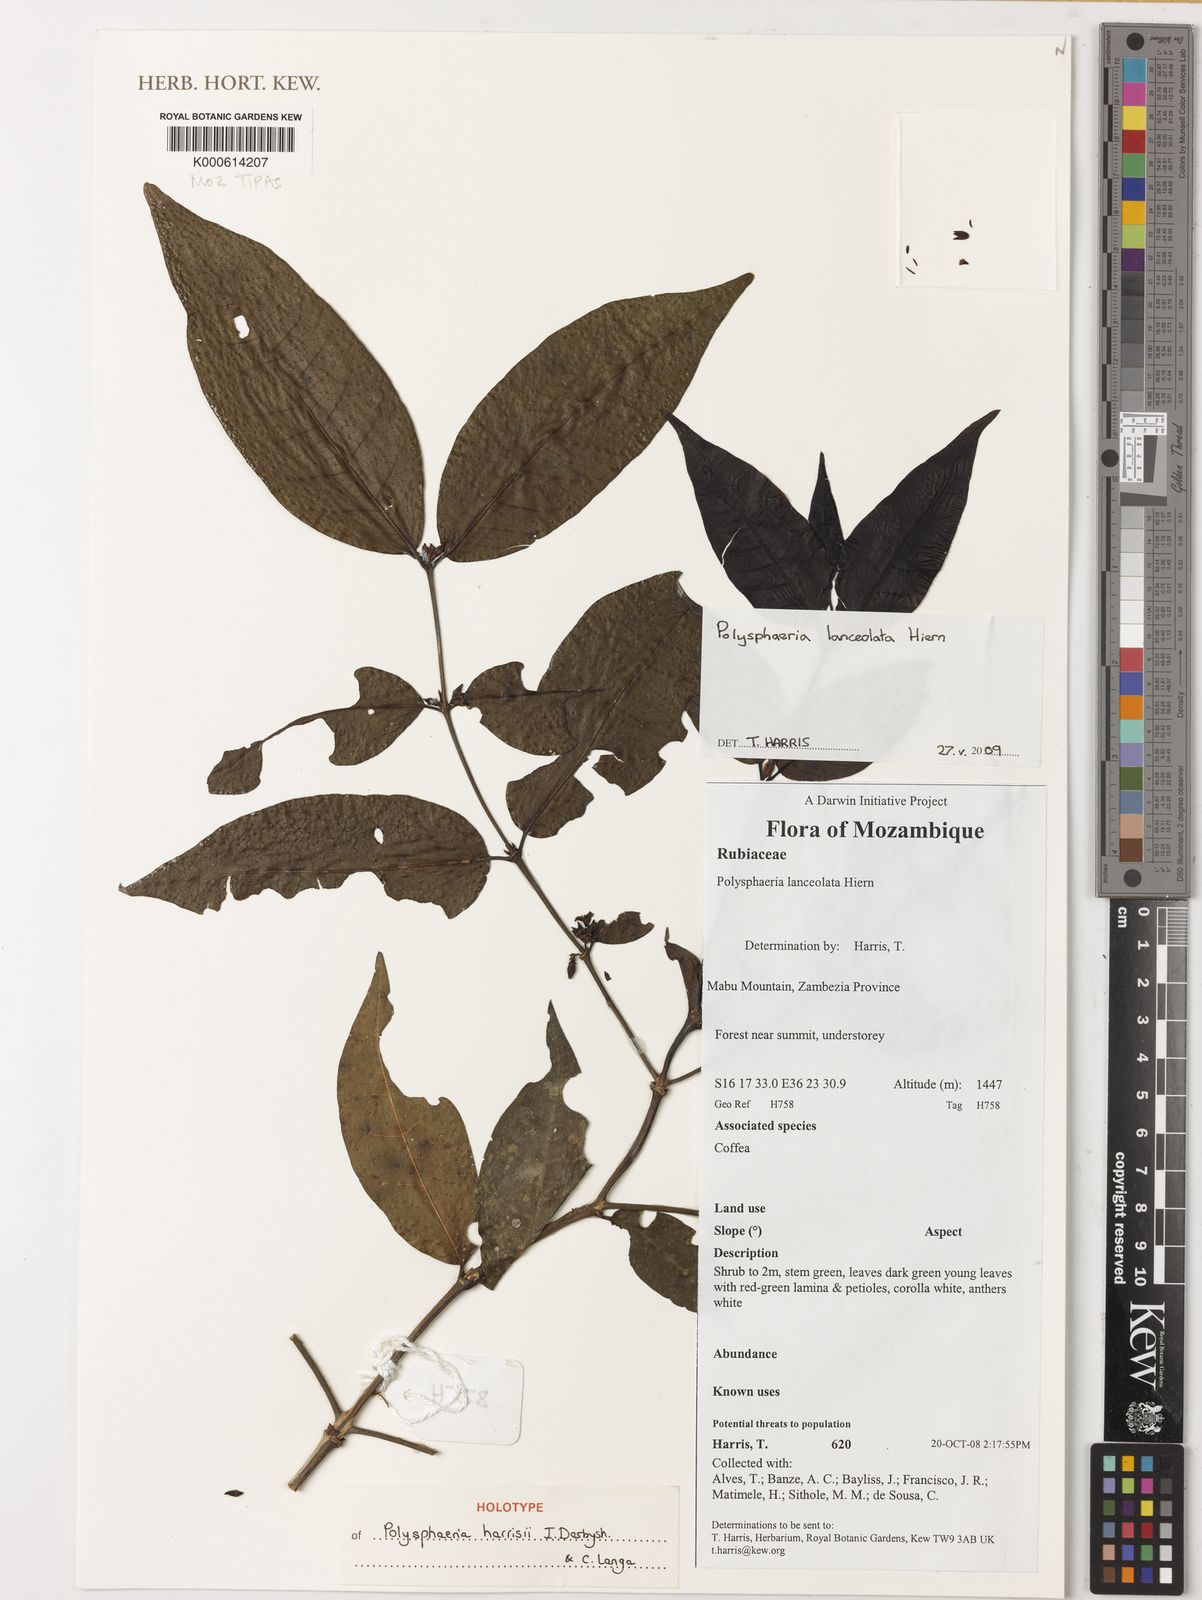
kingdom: Plantae
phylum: Tracheophyta
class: Magnoliopsida
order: Gentianales
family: Rubiaceae
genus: Polysphaeria
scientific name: Polysphaeria harrisii
